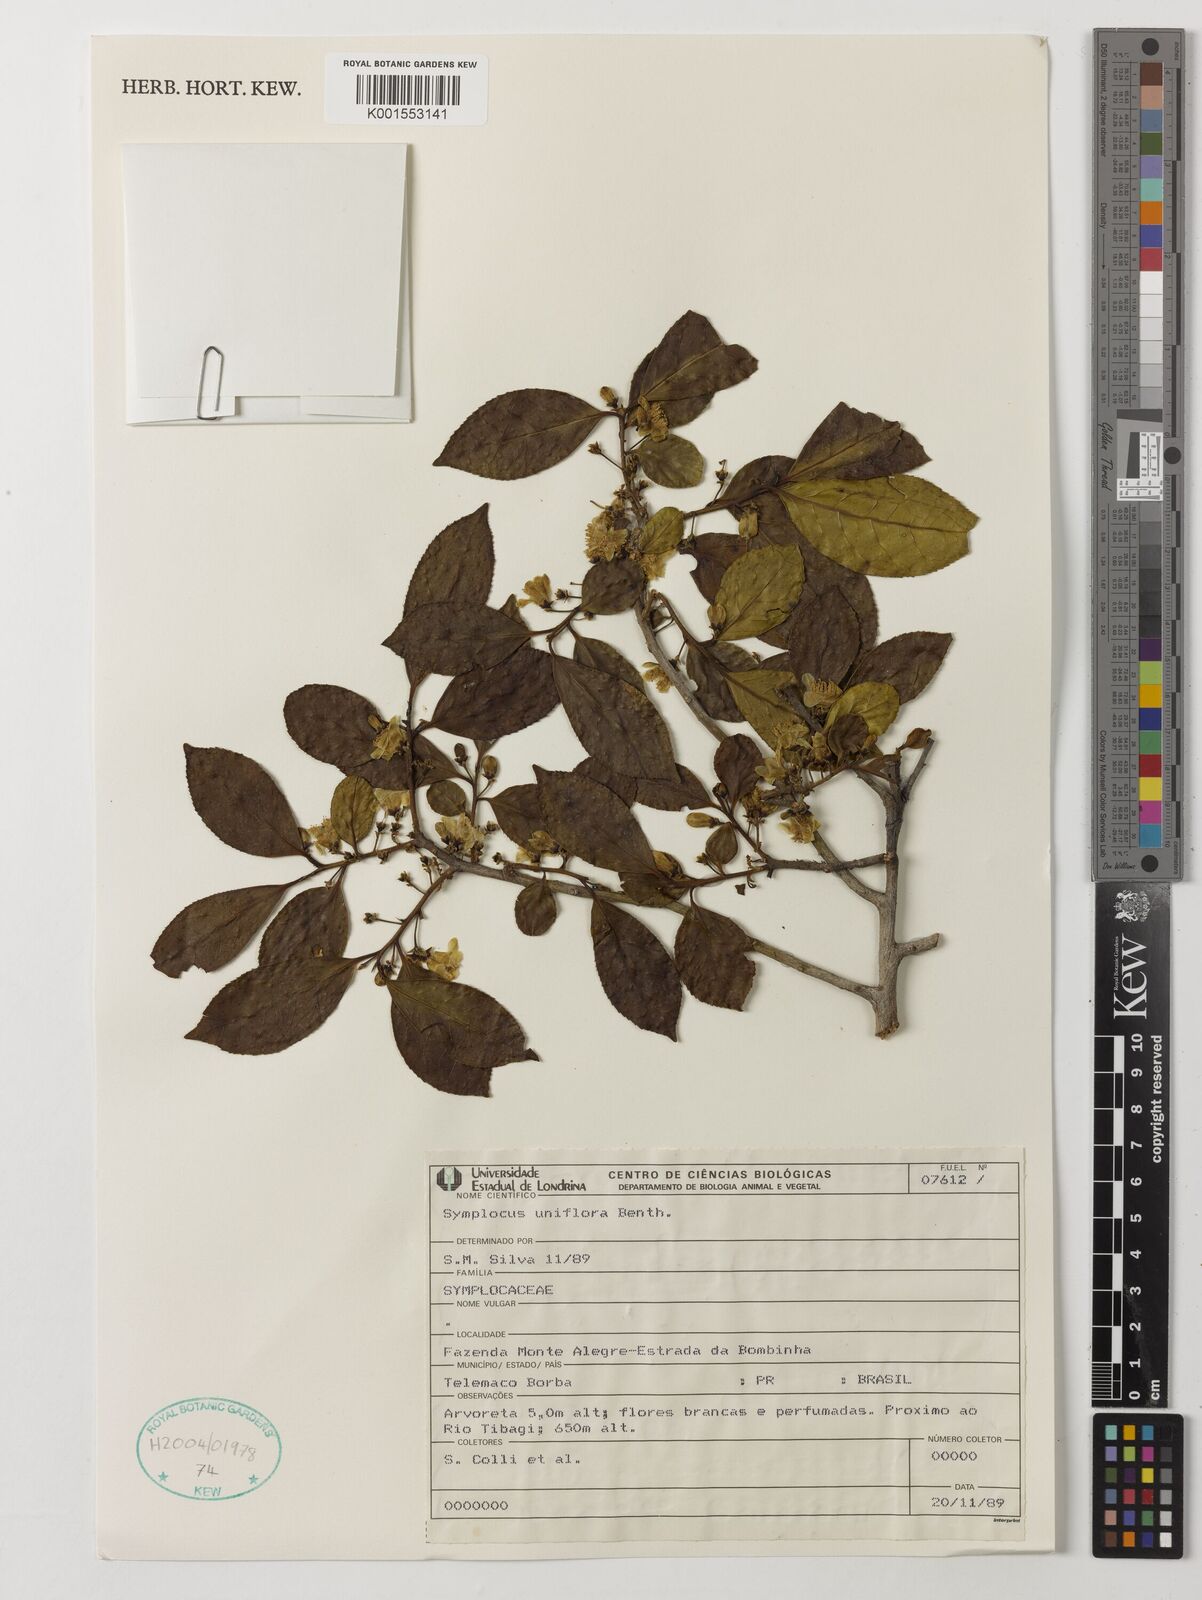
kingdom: Plantae
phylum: Tracheophyta
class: Magnoliopsida
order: Ericales
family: Symplocaceae
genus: Symplocos
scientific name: Symplocos uniflora
